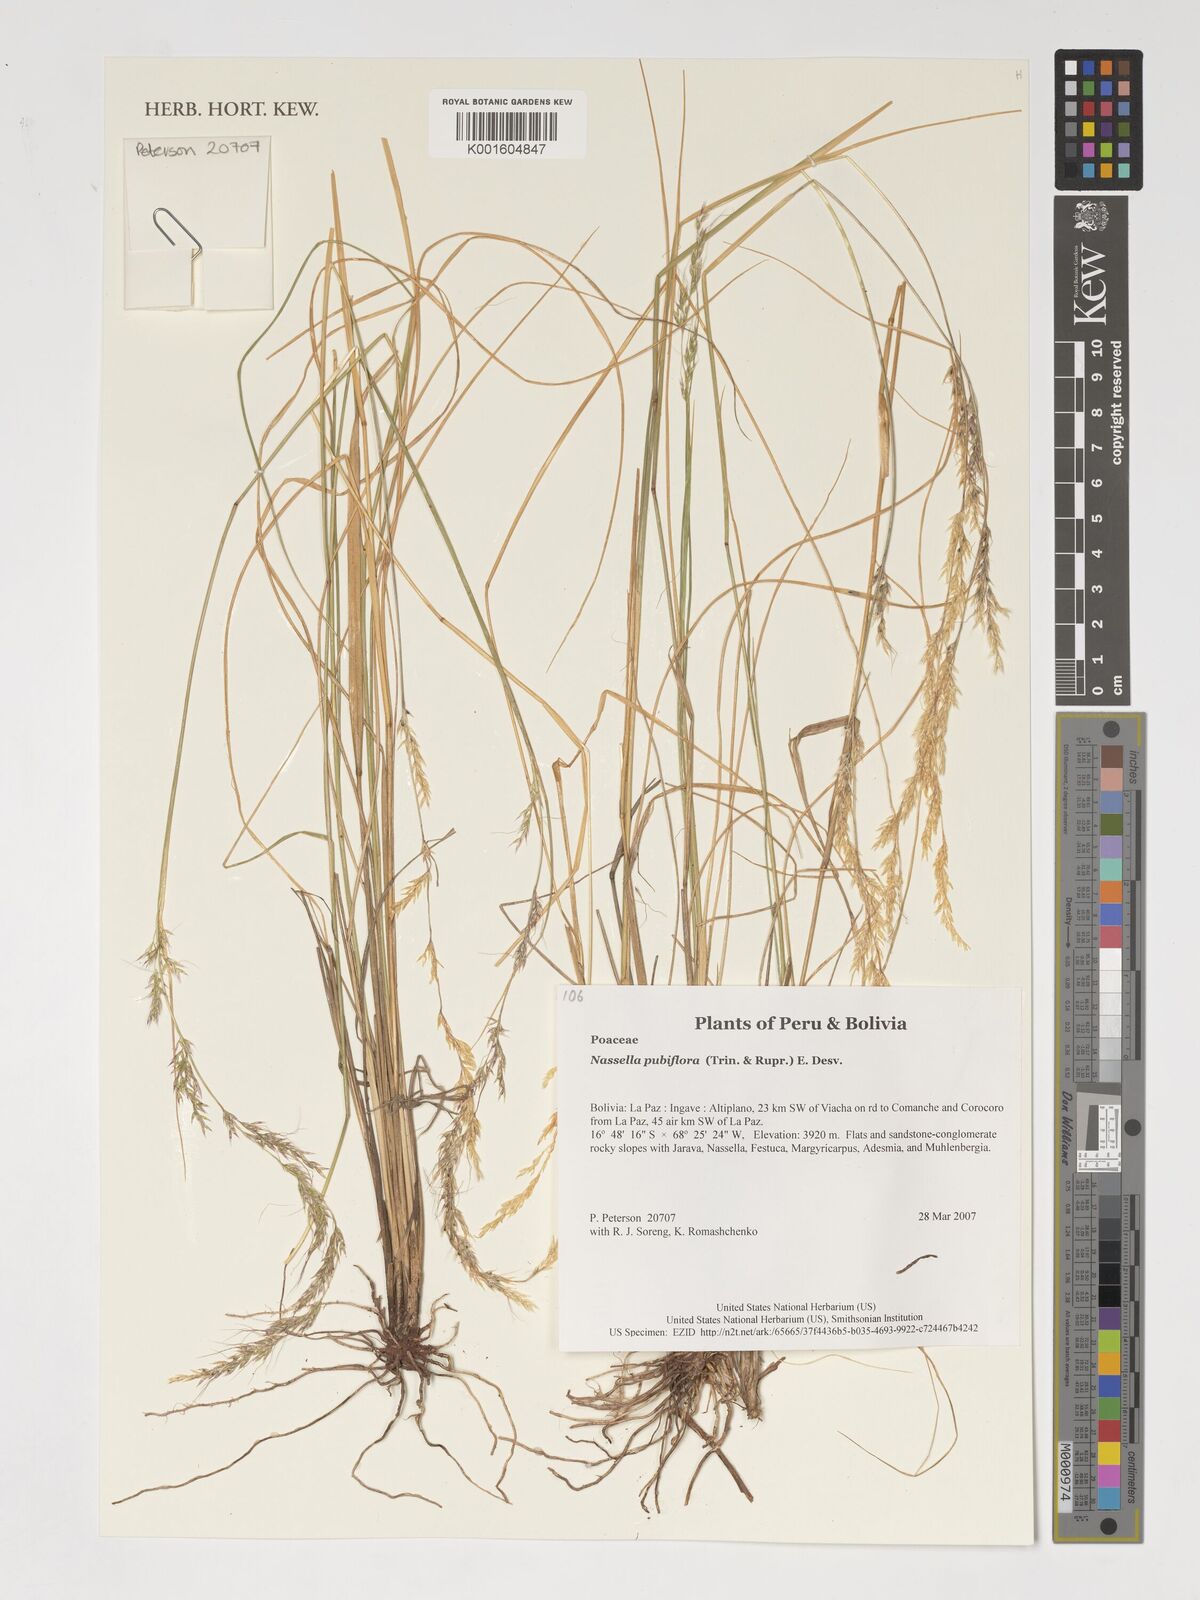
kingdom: Plantae
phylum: Tracheophyta
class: Liliopsida
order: Poales
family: Poaceae
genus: Nassella
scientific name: Nassella pubiflora
